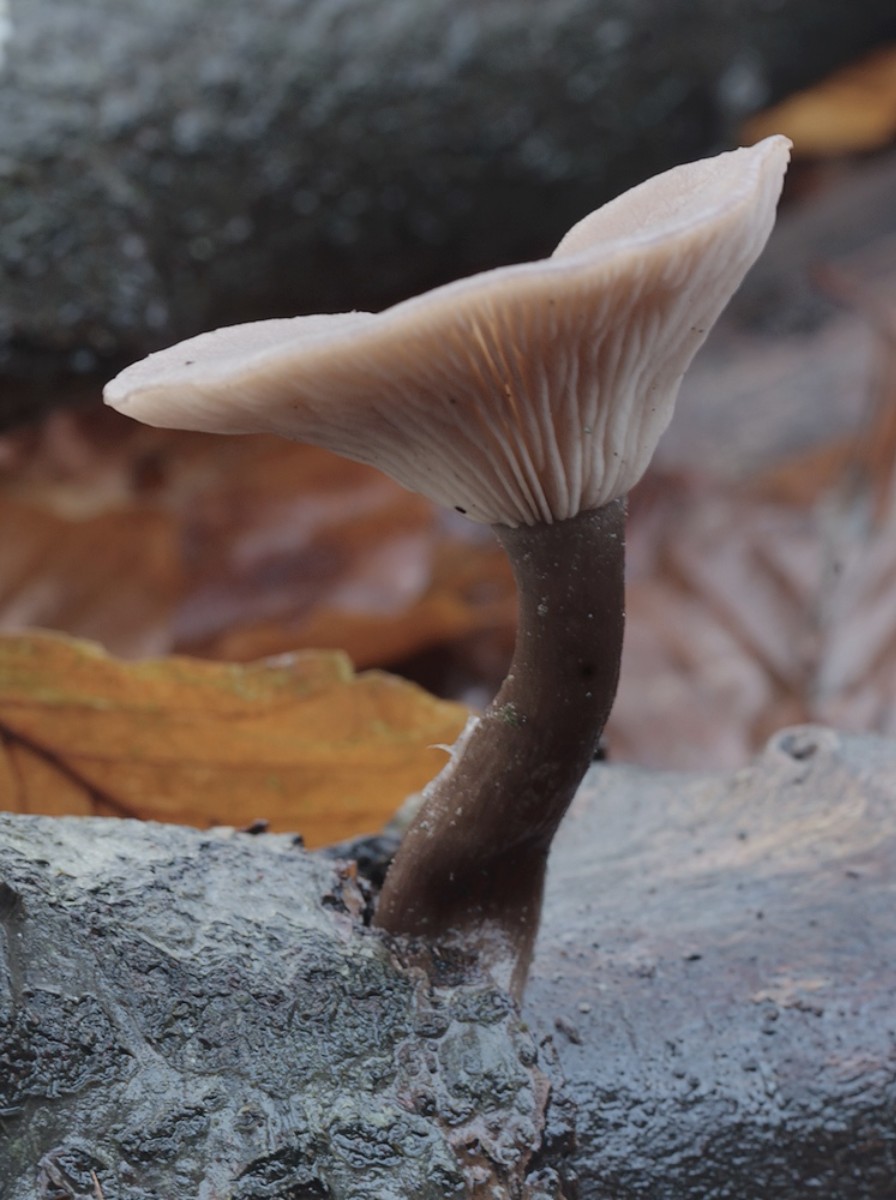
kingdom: Fungi
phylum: Basidiomycota
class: Agaricomycetes
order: Agaricales
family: Pseudoclitocybaceae
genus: Pseudoclitocybe
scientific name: Pseudoclitocybe cyathiformis
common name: almindelig bægertragthat
